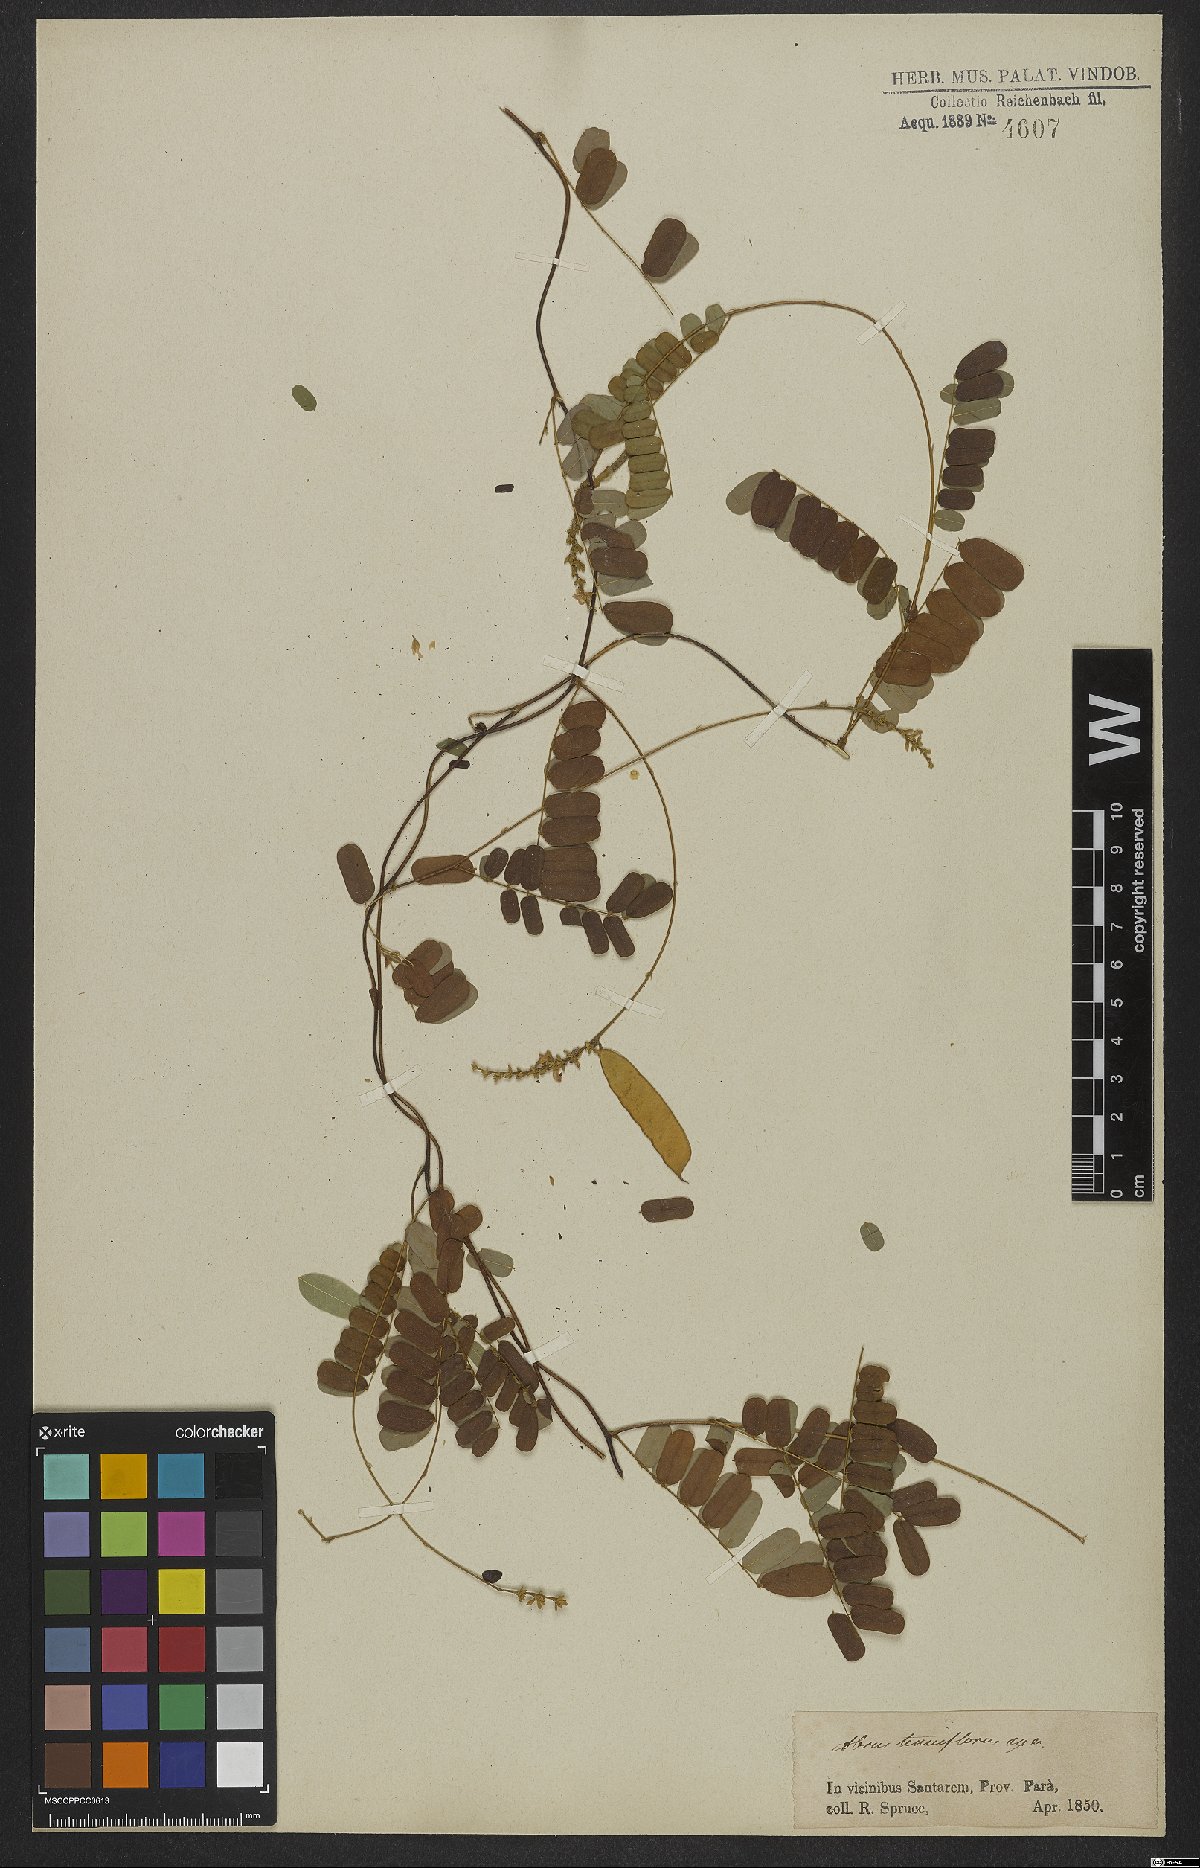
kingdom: Plantae
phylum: Tracheophyta
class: Magnoliopsida
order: Fabales
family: Fabaceae
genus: Abrus
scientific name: Abrus melanospermus
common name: Licorice-root
